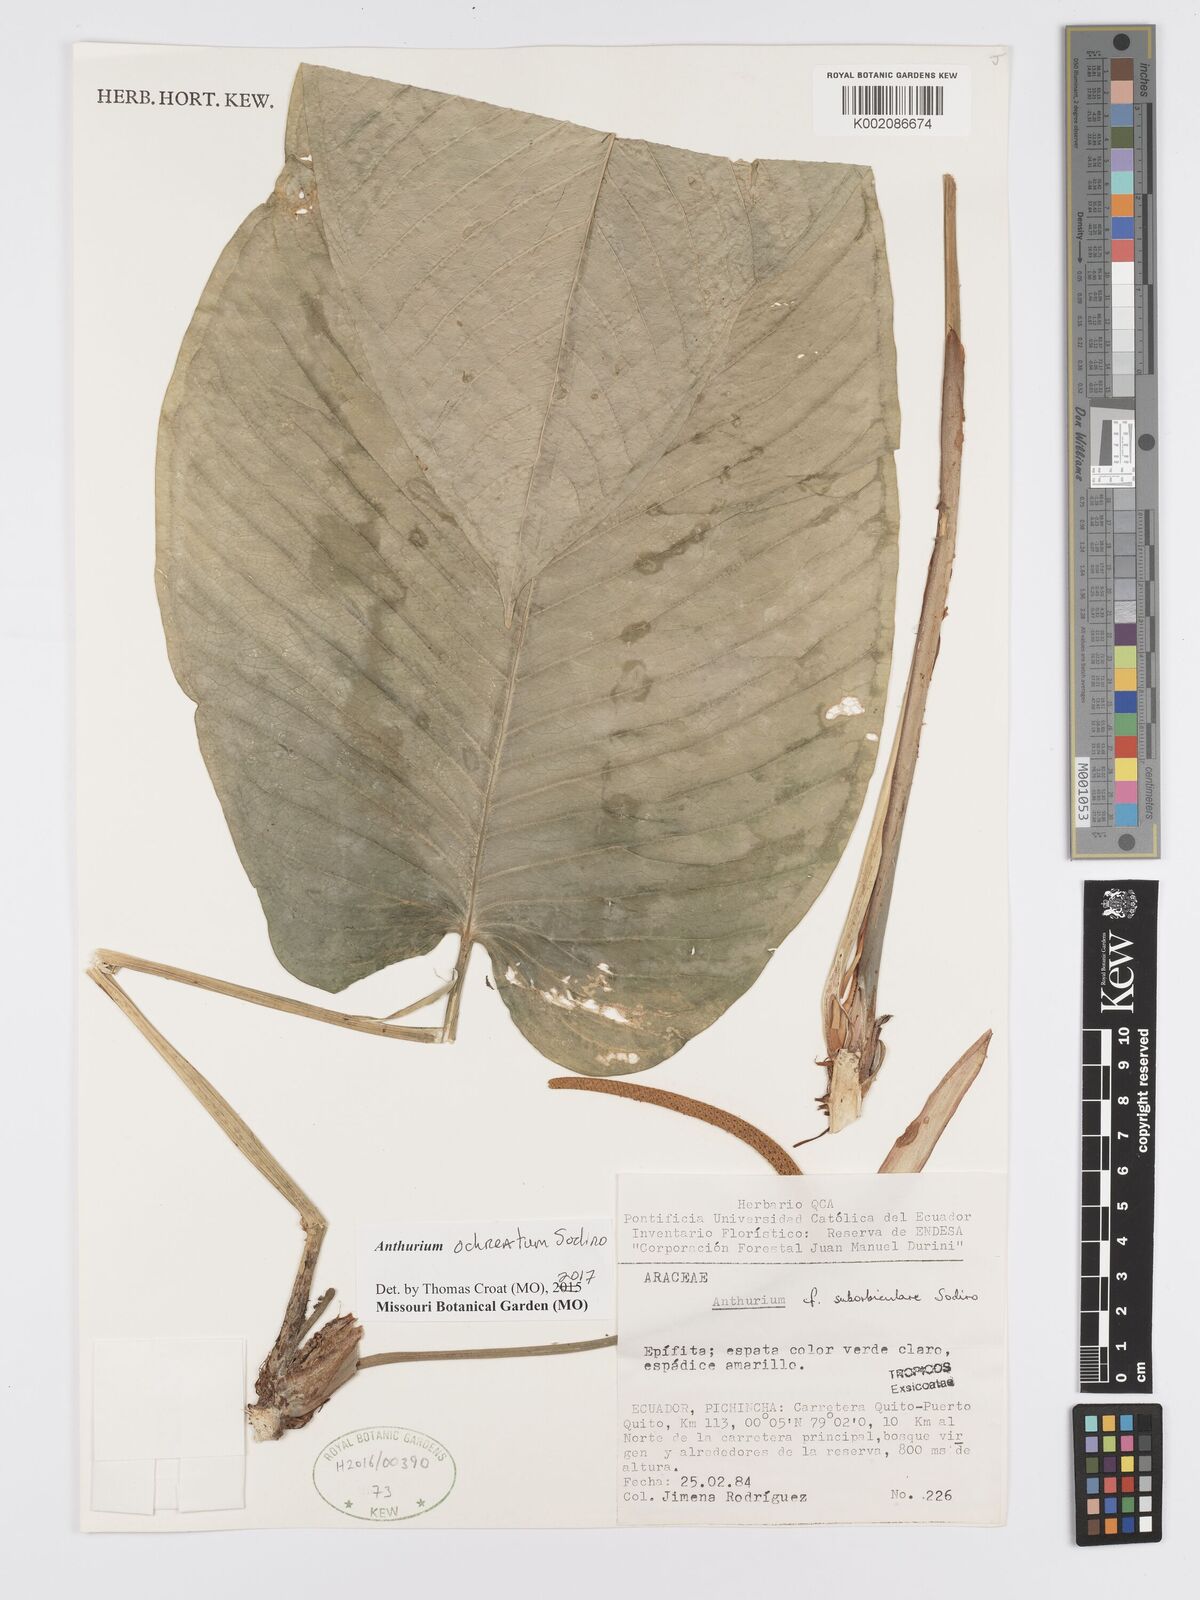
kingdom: Plantae
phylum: Tracheophyta
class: Liliopsida
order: Alismatales
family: Araceae
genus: Anthurium
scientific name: Anthurium ochreatum
